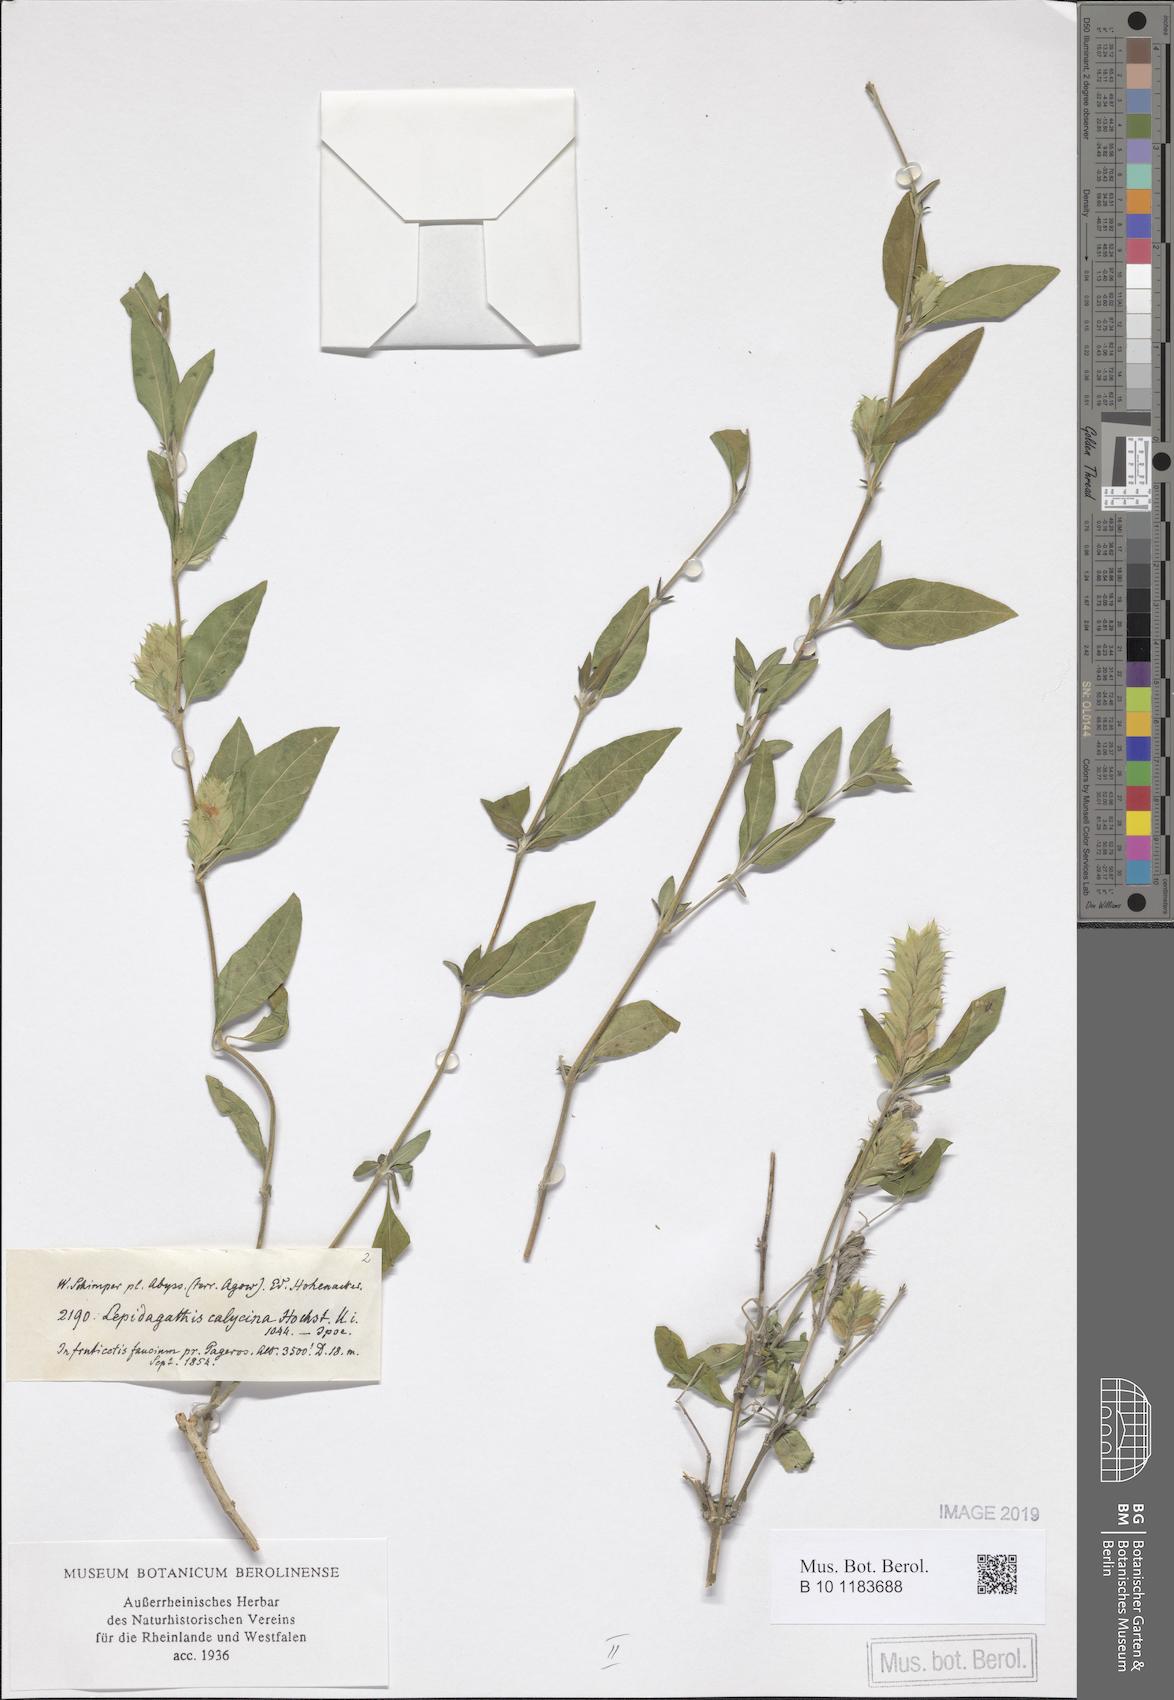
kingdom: Plantae
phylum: Tracheophyta
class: Magnoliopsida
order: Lamiales
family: Acanthaceae
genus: Lepidagathis
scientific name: Lepidagathis calycina
